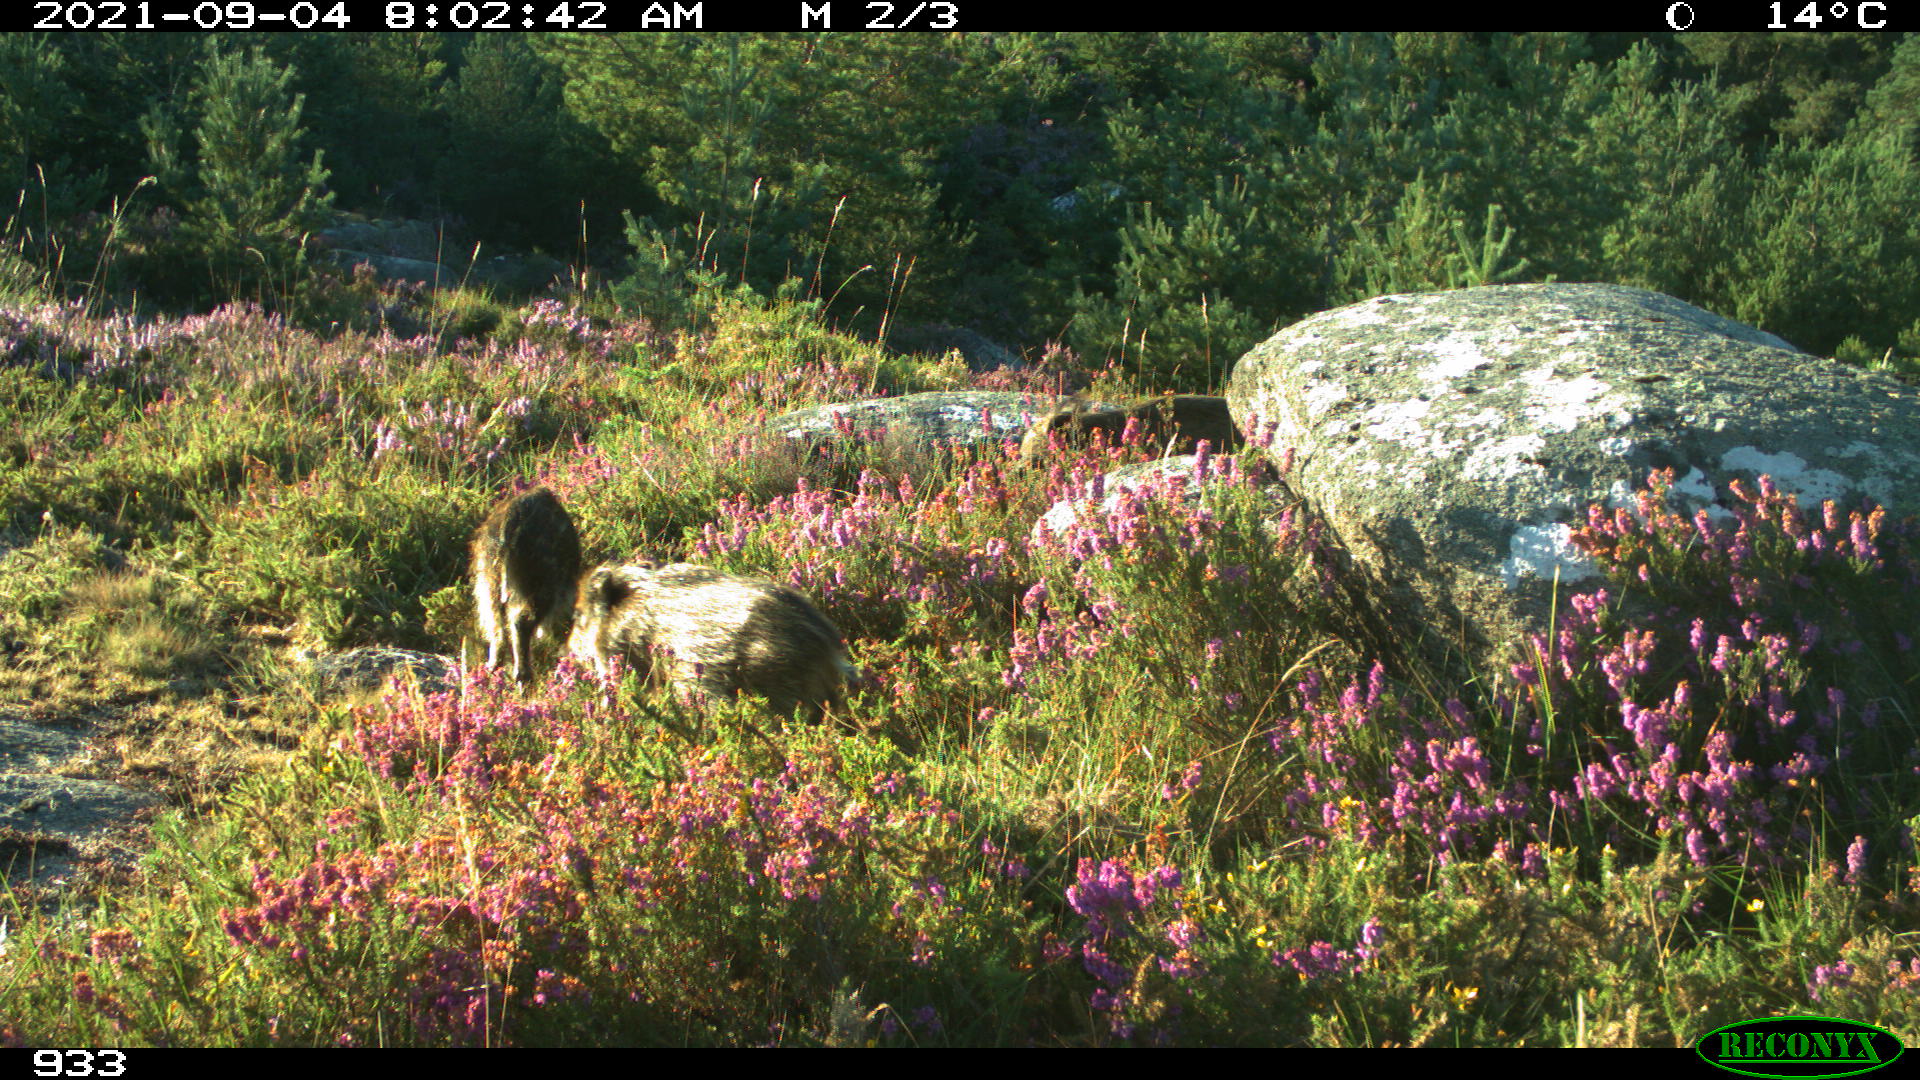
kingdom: Animalia
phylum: Chordata
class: Mammalia
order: Artiodactyla
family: Suidae
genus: Sus
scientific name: Sus scrofa
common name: Wild boar
